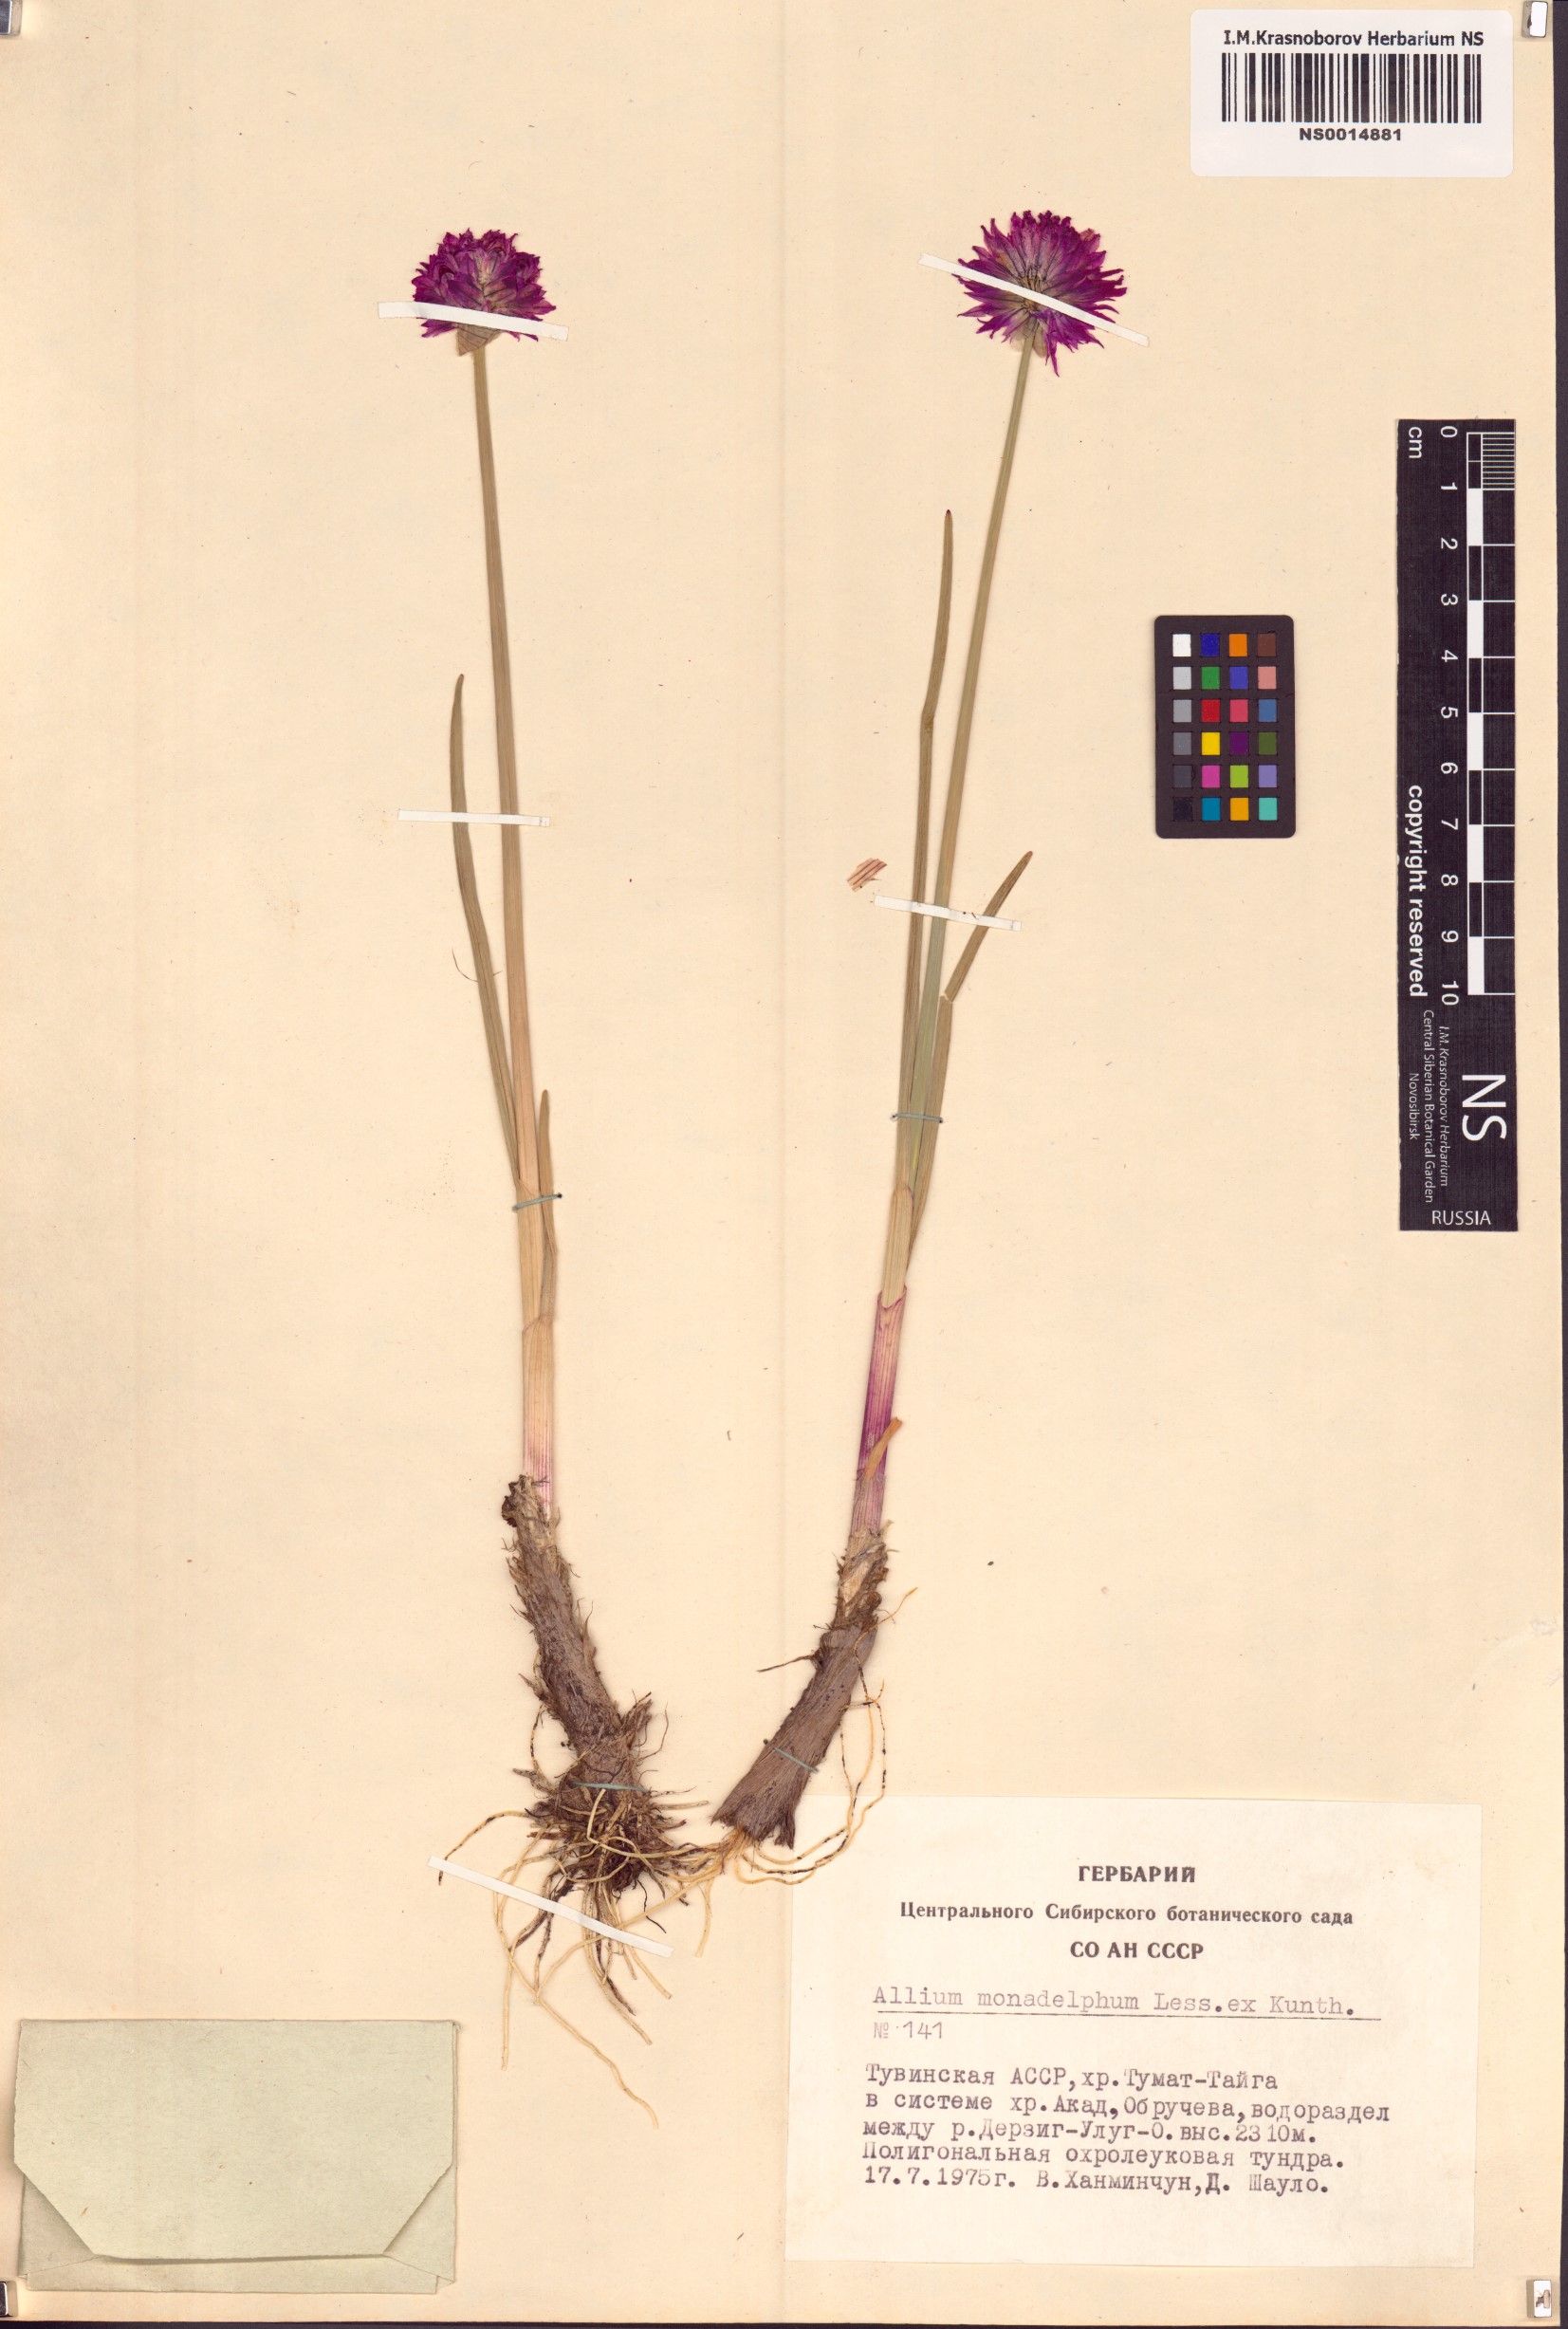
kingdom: Plantae
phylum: Tracheophyta
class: Liliopsida
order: Asparagales
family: Amaryllidaceae
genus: Allium
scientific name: Allium atrosanguineum
